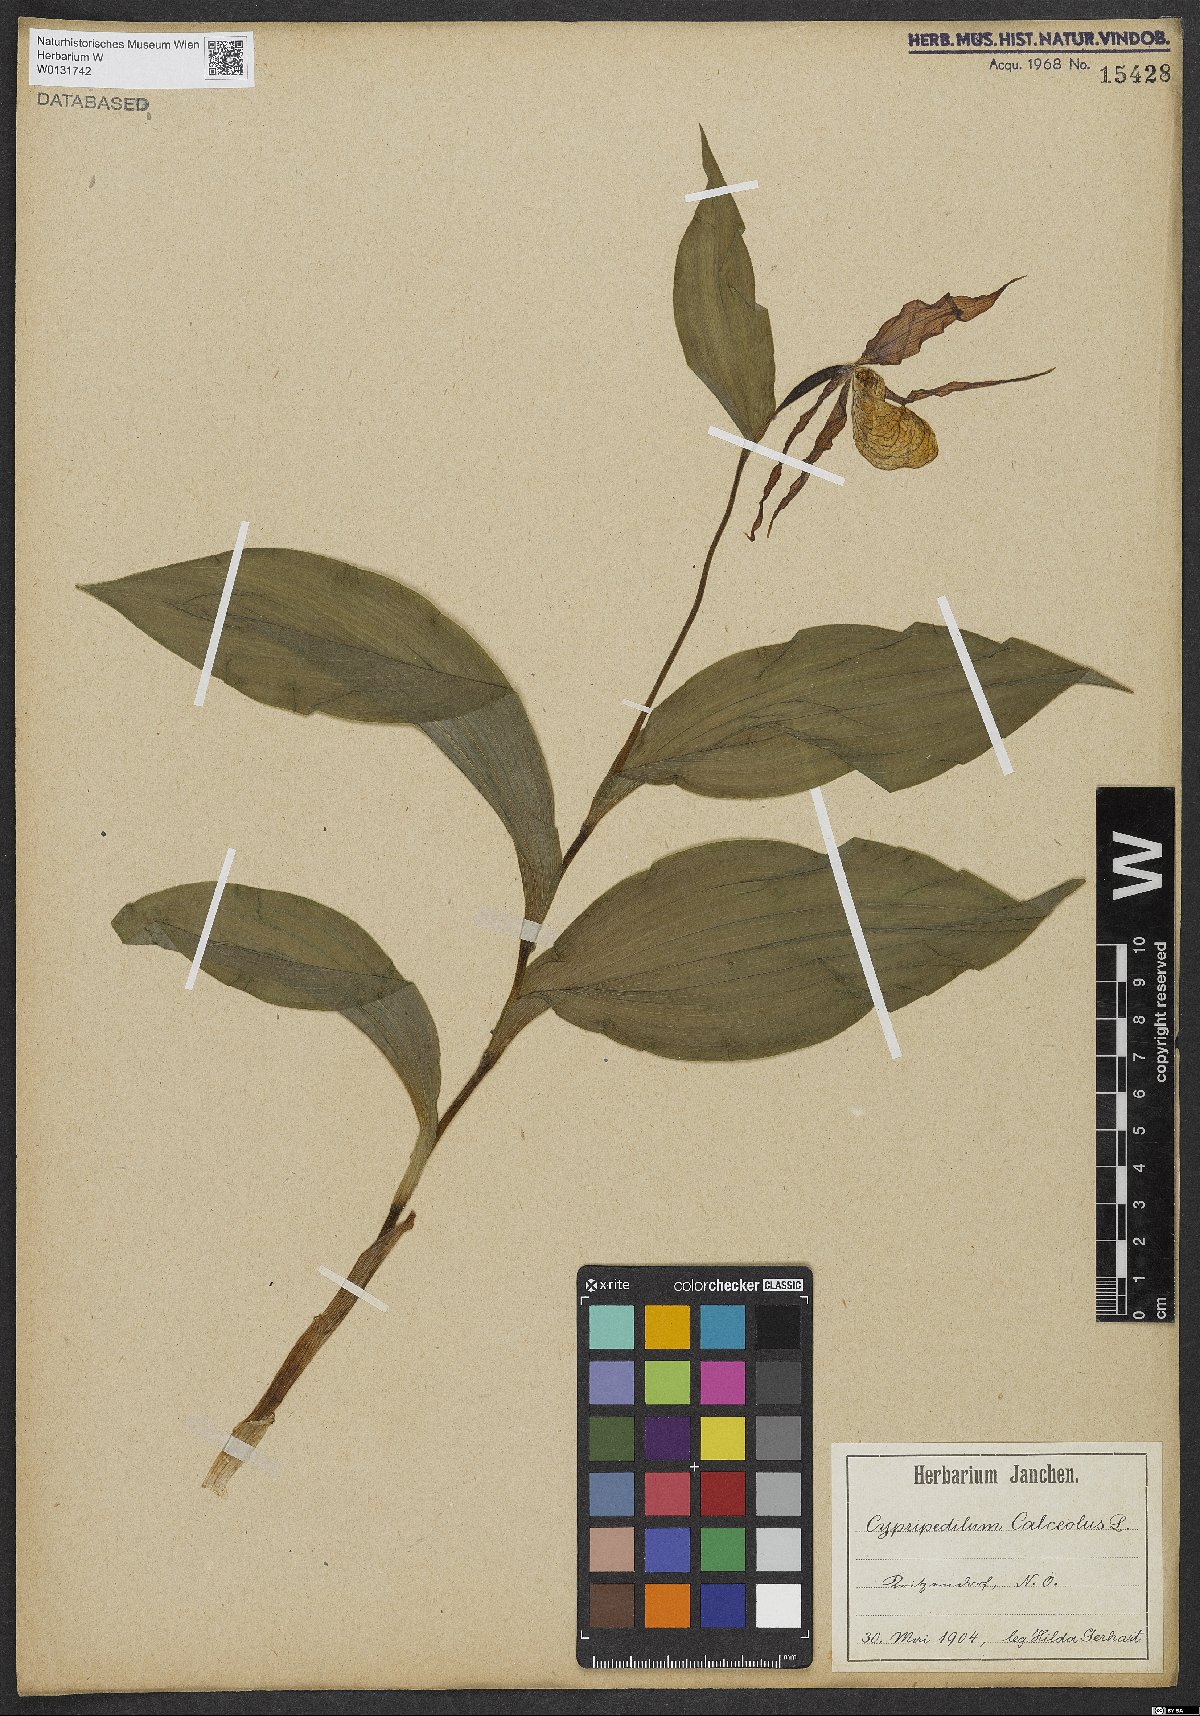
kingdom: Plantae
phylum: Tracheophyta
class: Liliopsida
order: Asparagales
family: Orchidaceae
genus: Cypripedium
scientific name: Cypripedium calceolus
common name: Lady's-slipper
